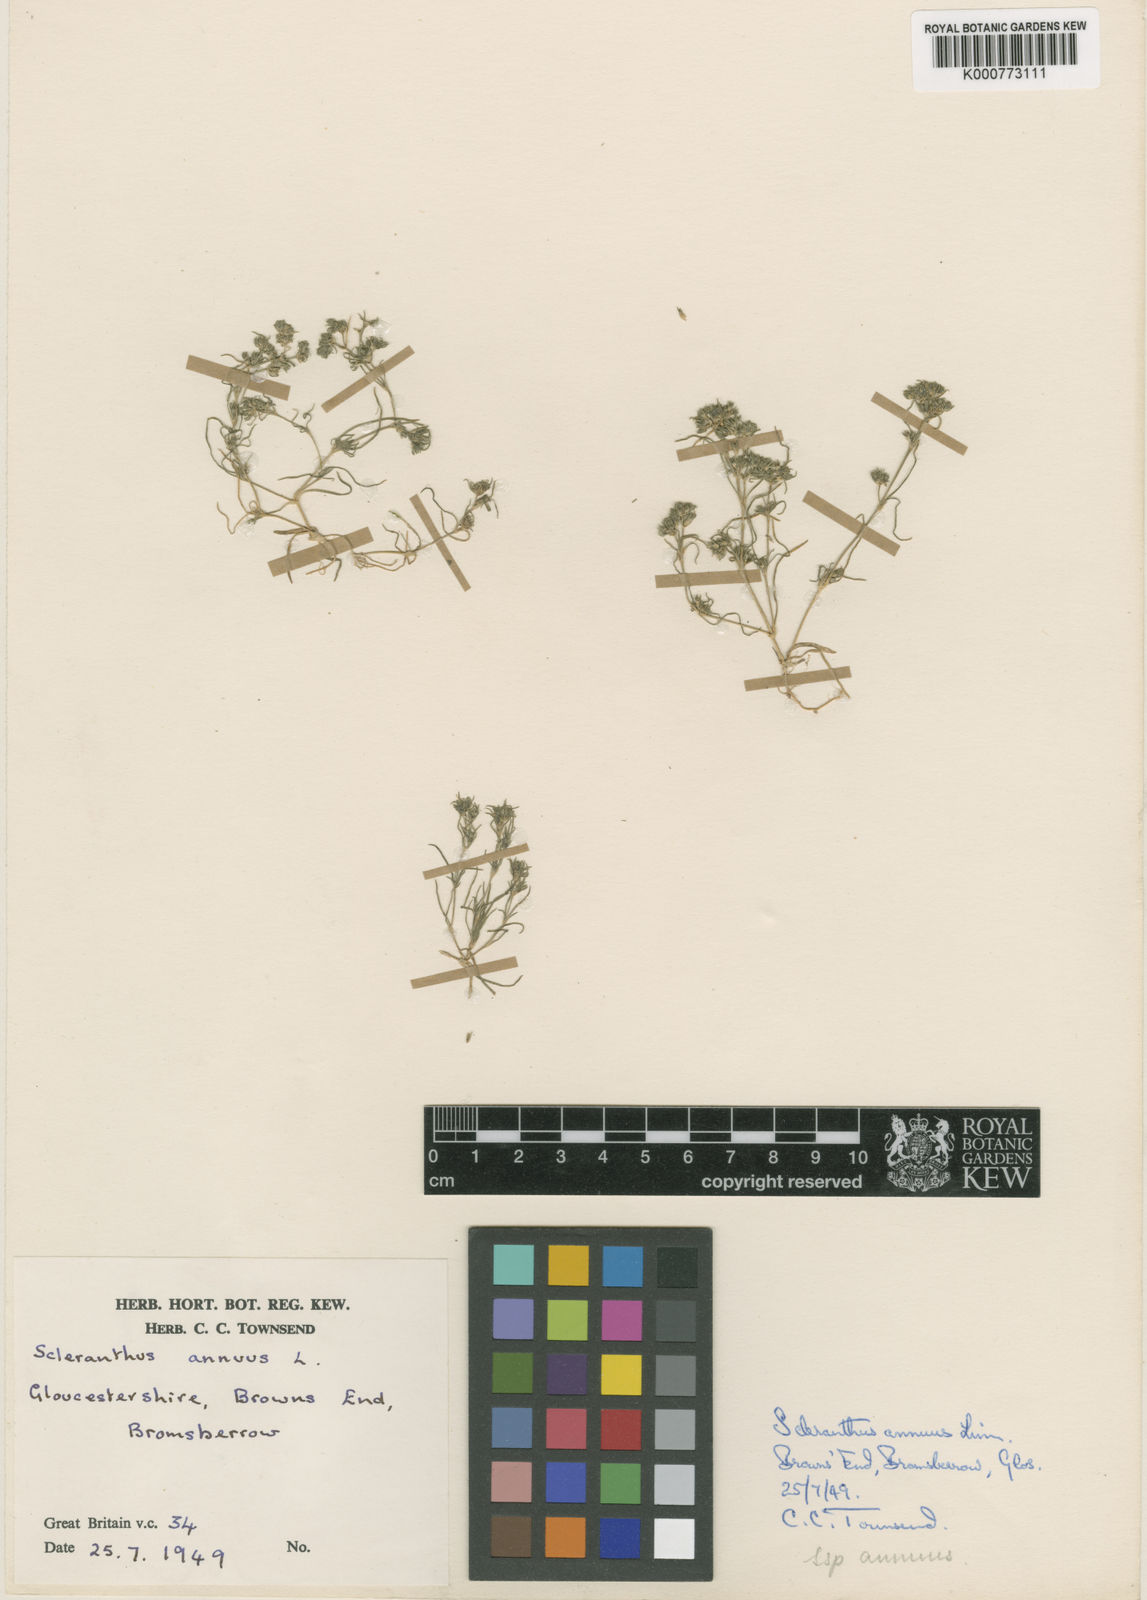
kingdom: Plantae
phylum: Tracheophyta
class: Magnoliopsida
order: Caryophyllales
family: Caryophyllaceae
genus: Scleranthus
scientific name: Scleranthus annuus
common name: Annual knawel
